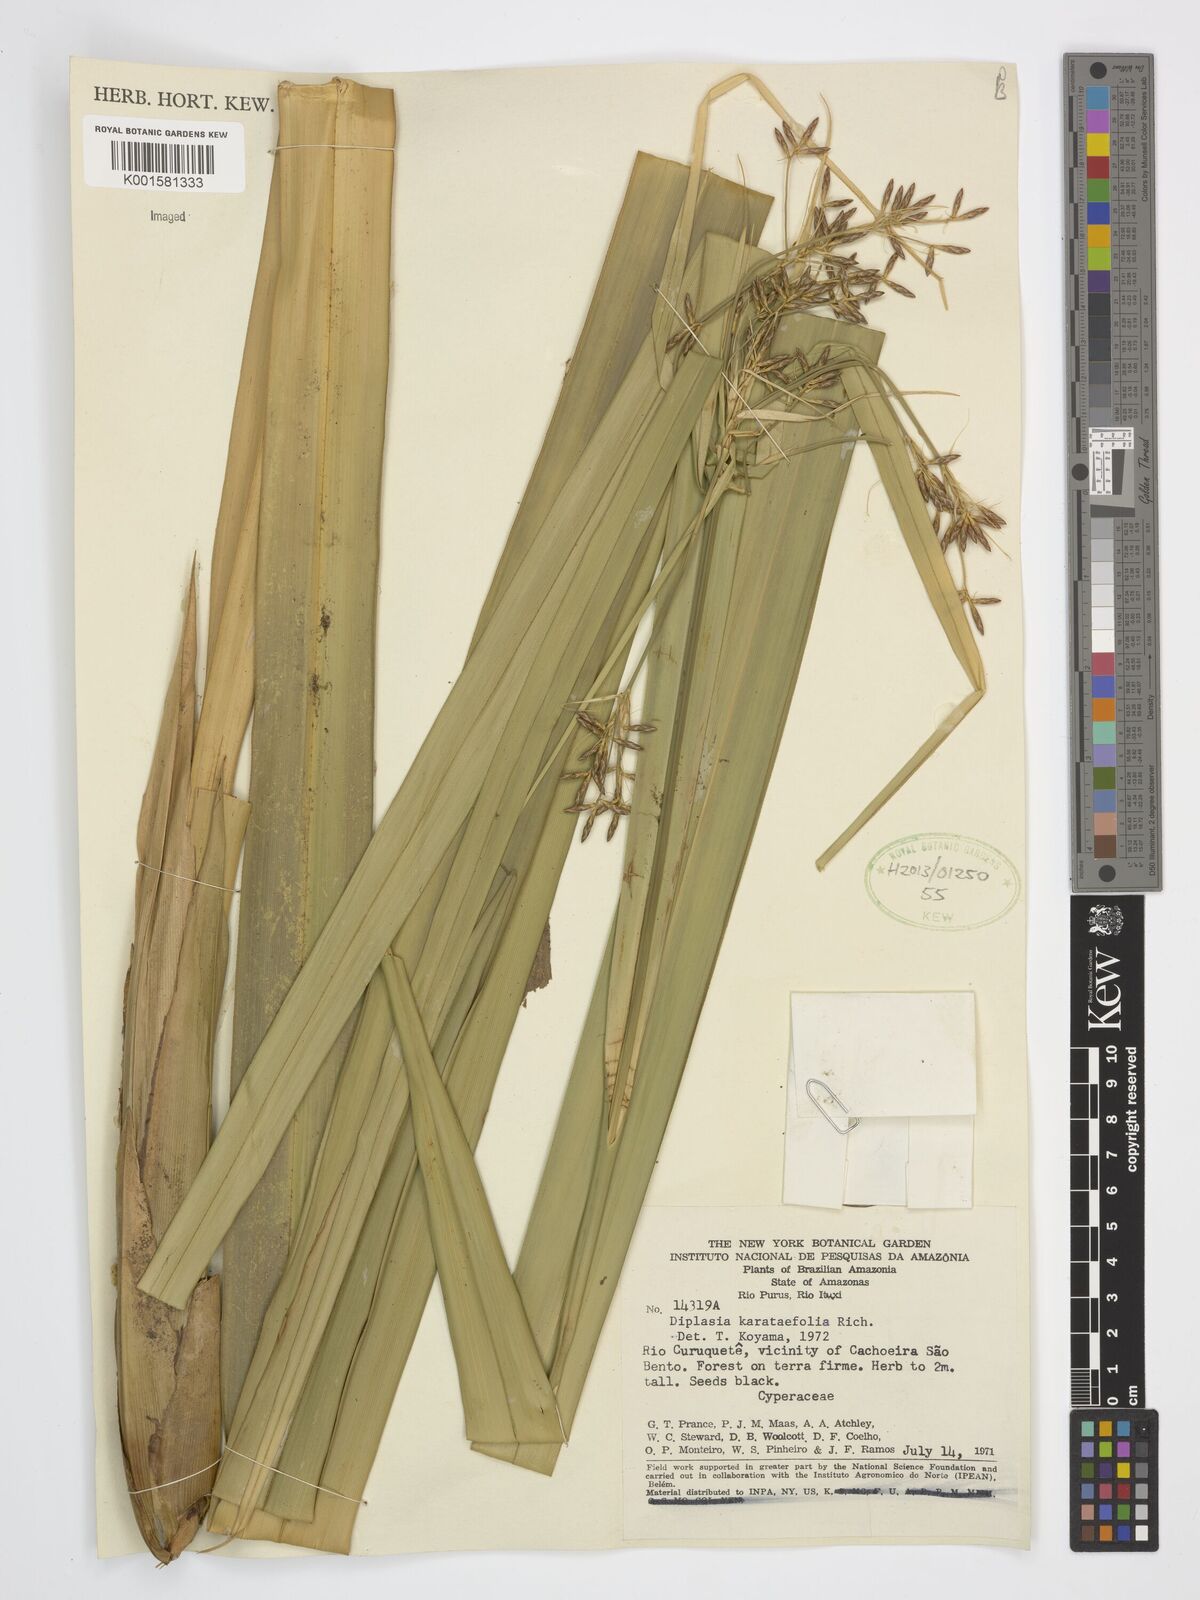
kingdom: Plantae
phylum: Tracheophyta
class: Liliopsida
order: Poales
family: Cyperaceae
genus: Diplasia
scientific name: Diplasia karatifolia
